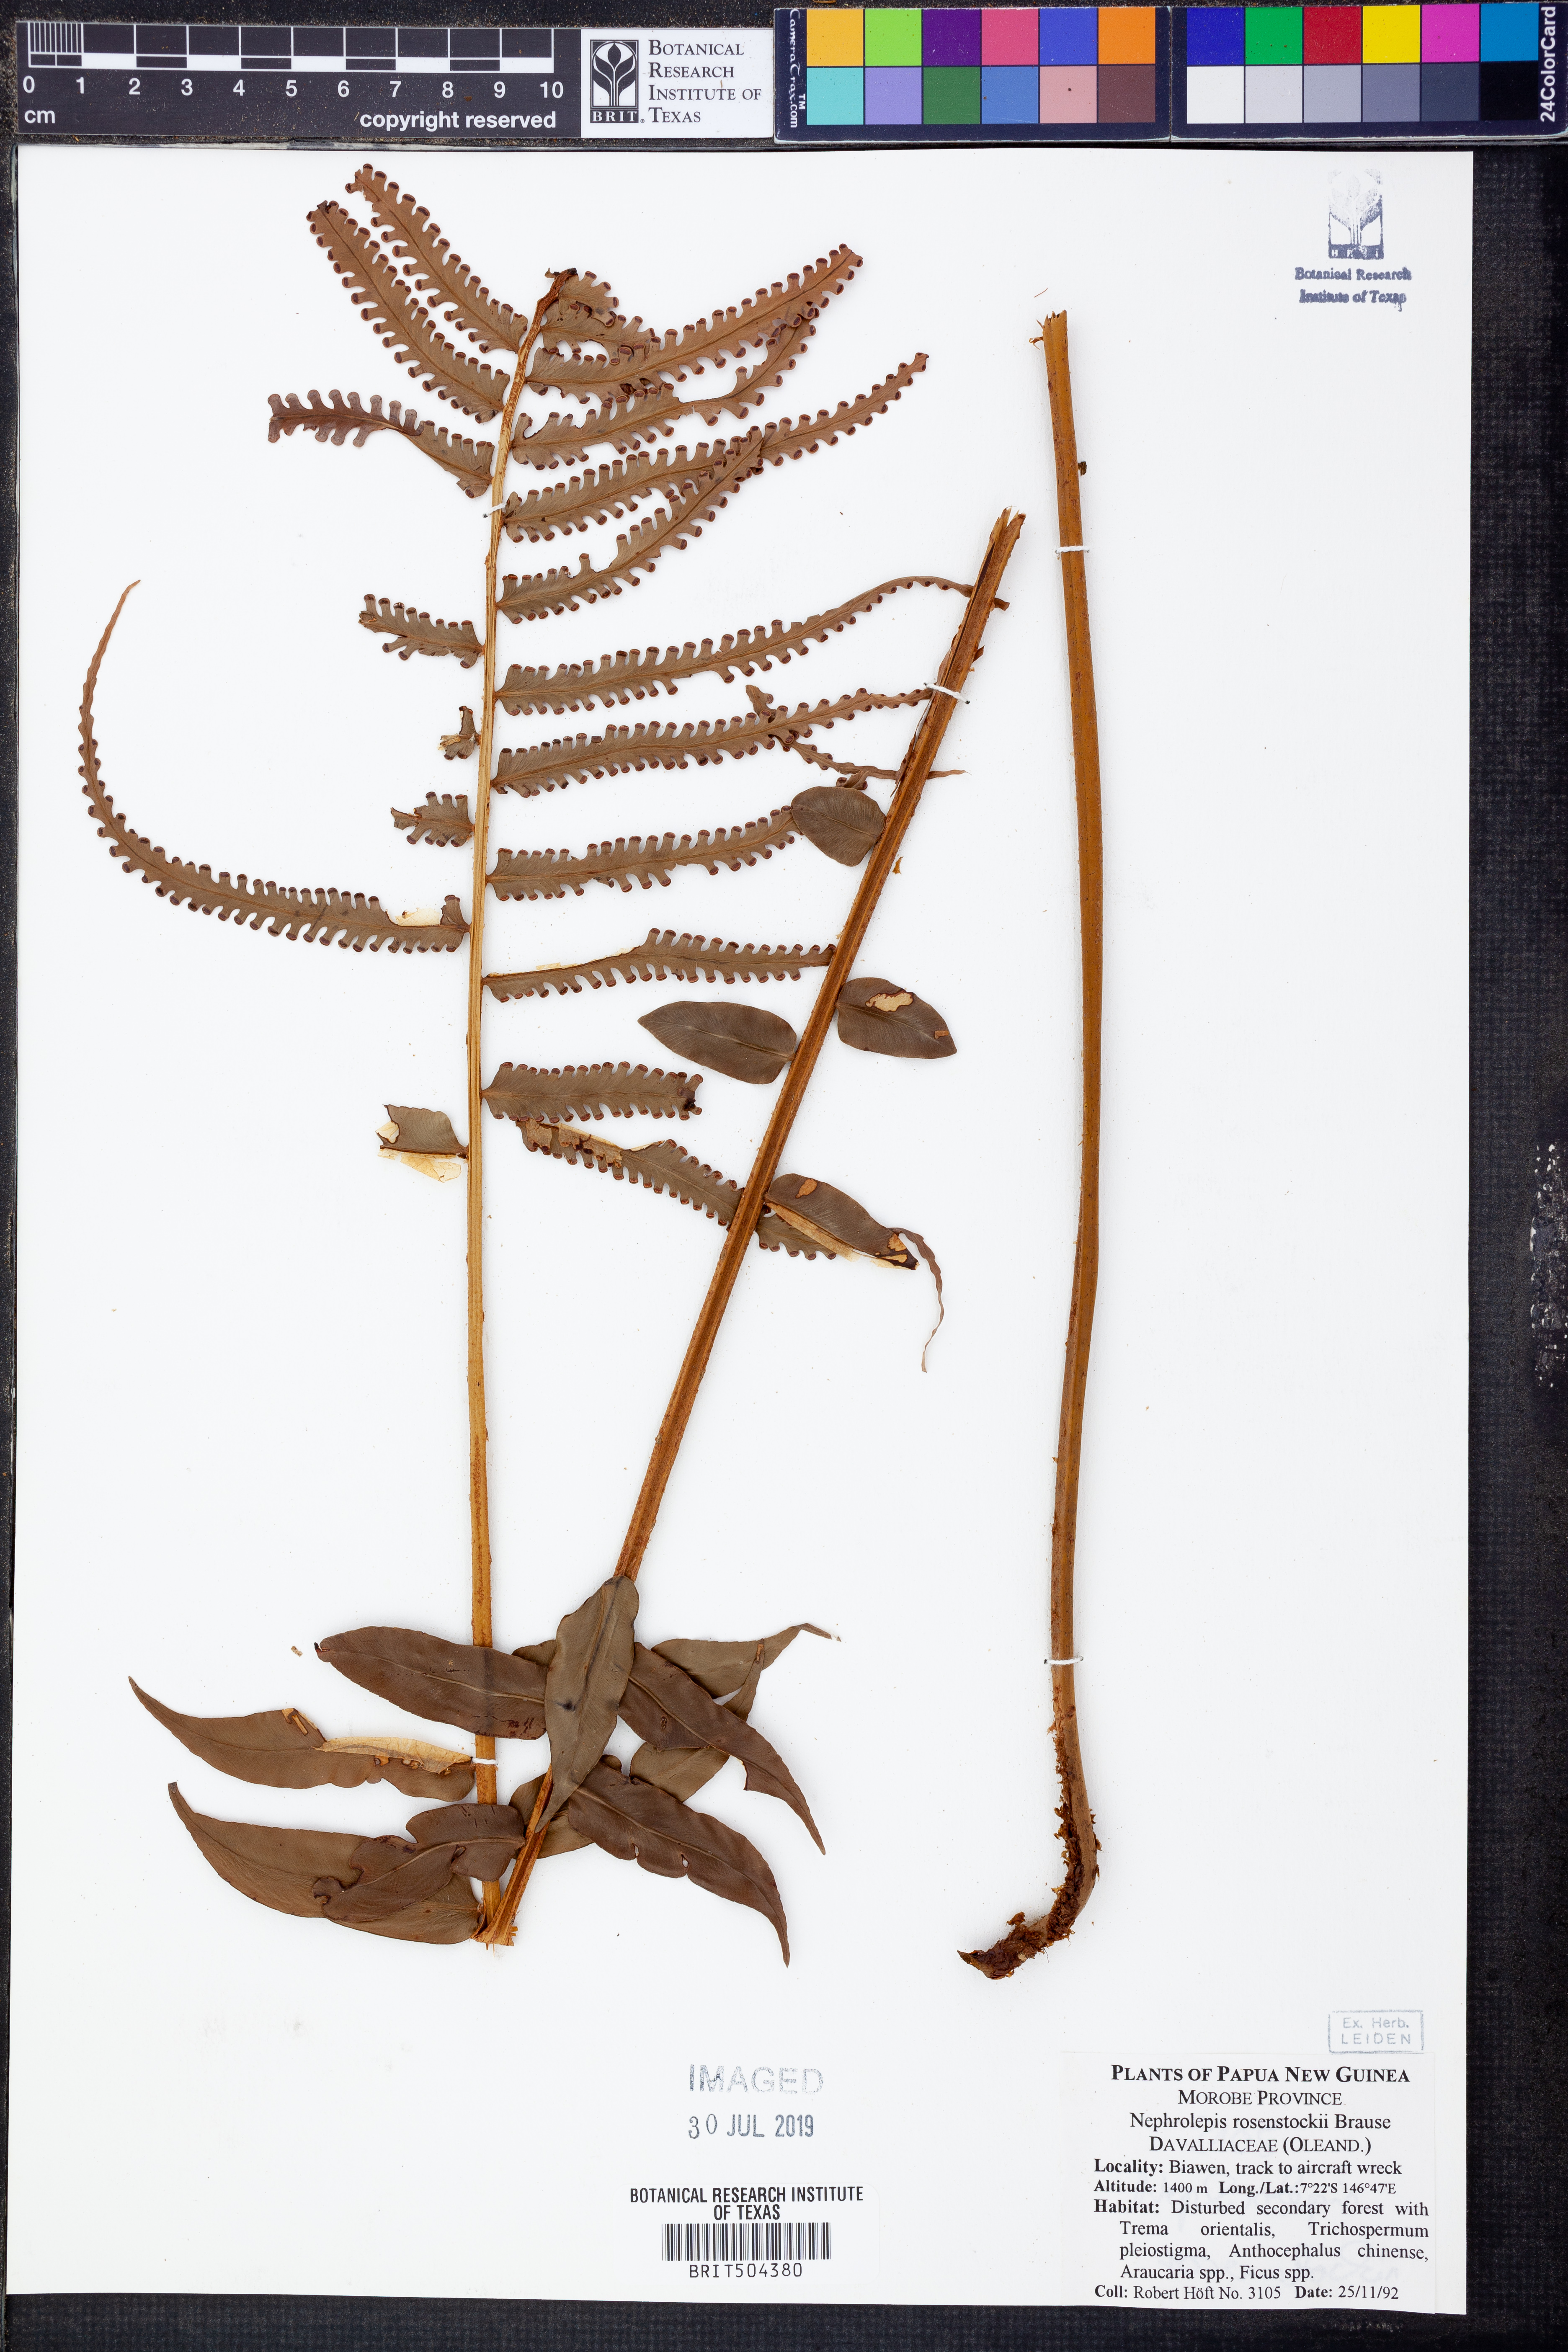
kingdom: Plantae
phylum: Tracheophyta
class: Polypodiopsida
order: Polypodiales
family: Nephrolepidaceae
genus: Nephrolepis
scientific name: Nephrolepis dicksonioides
